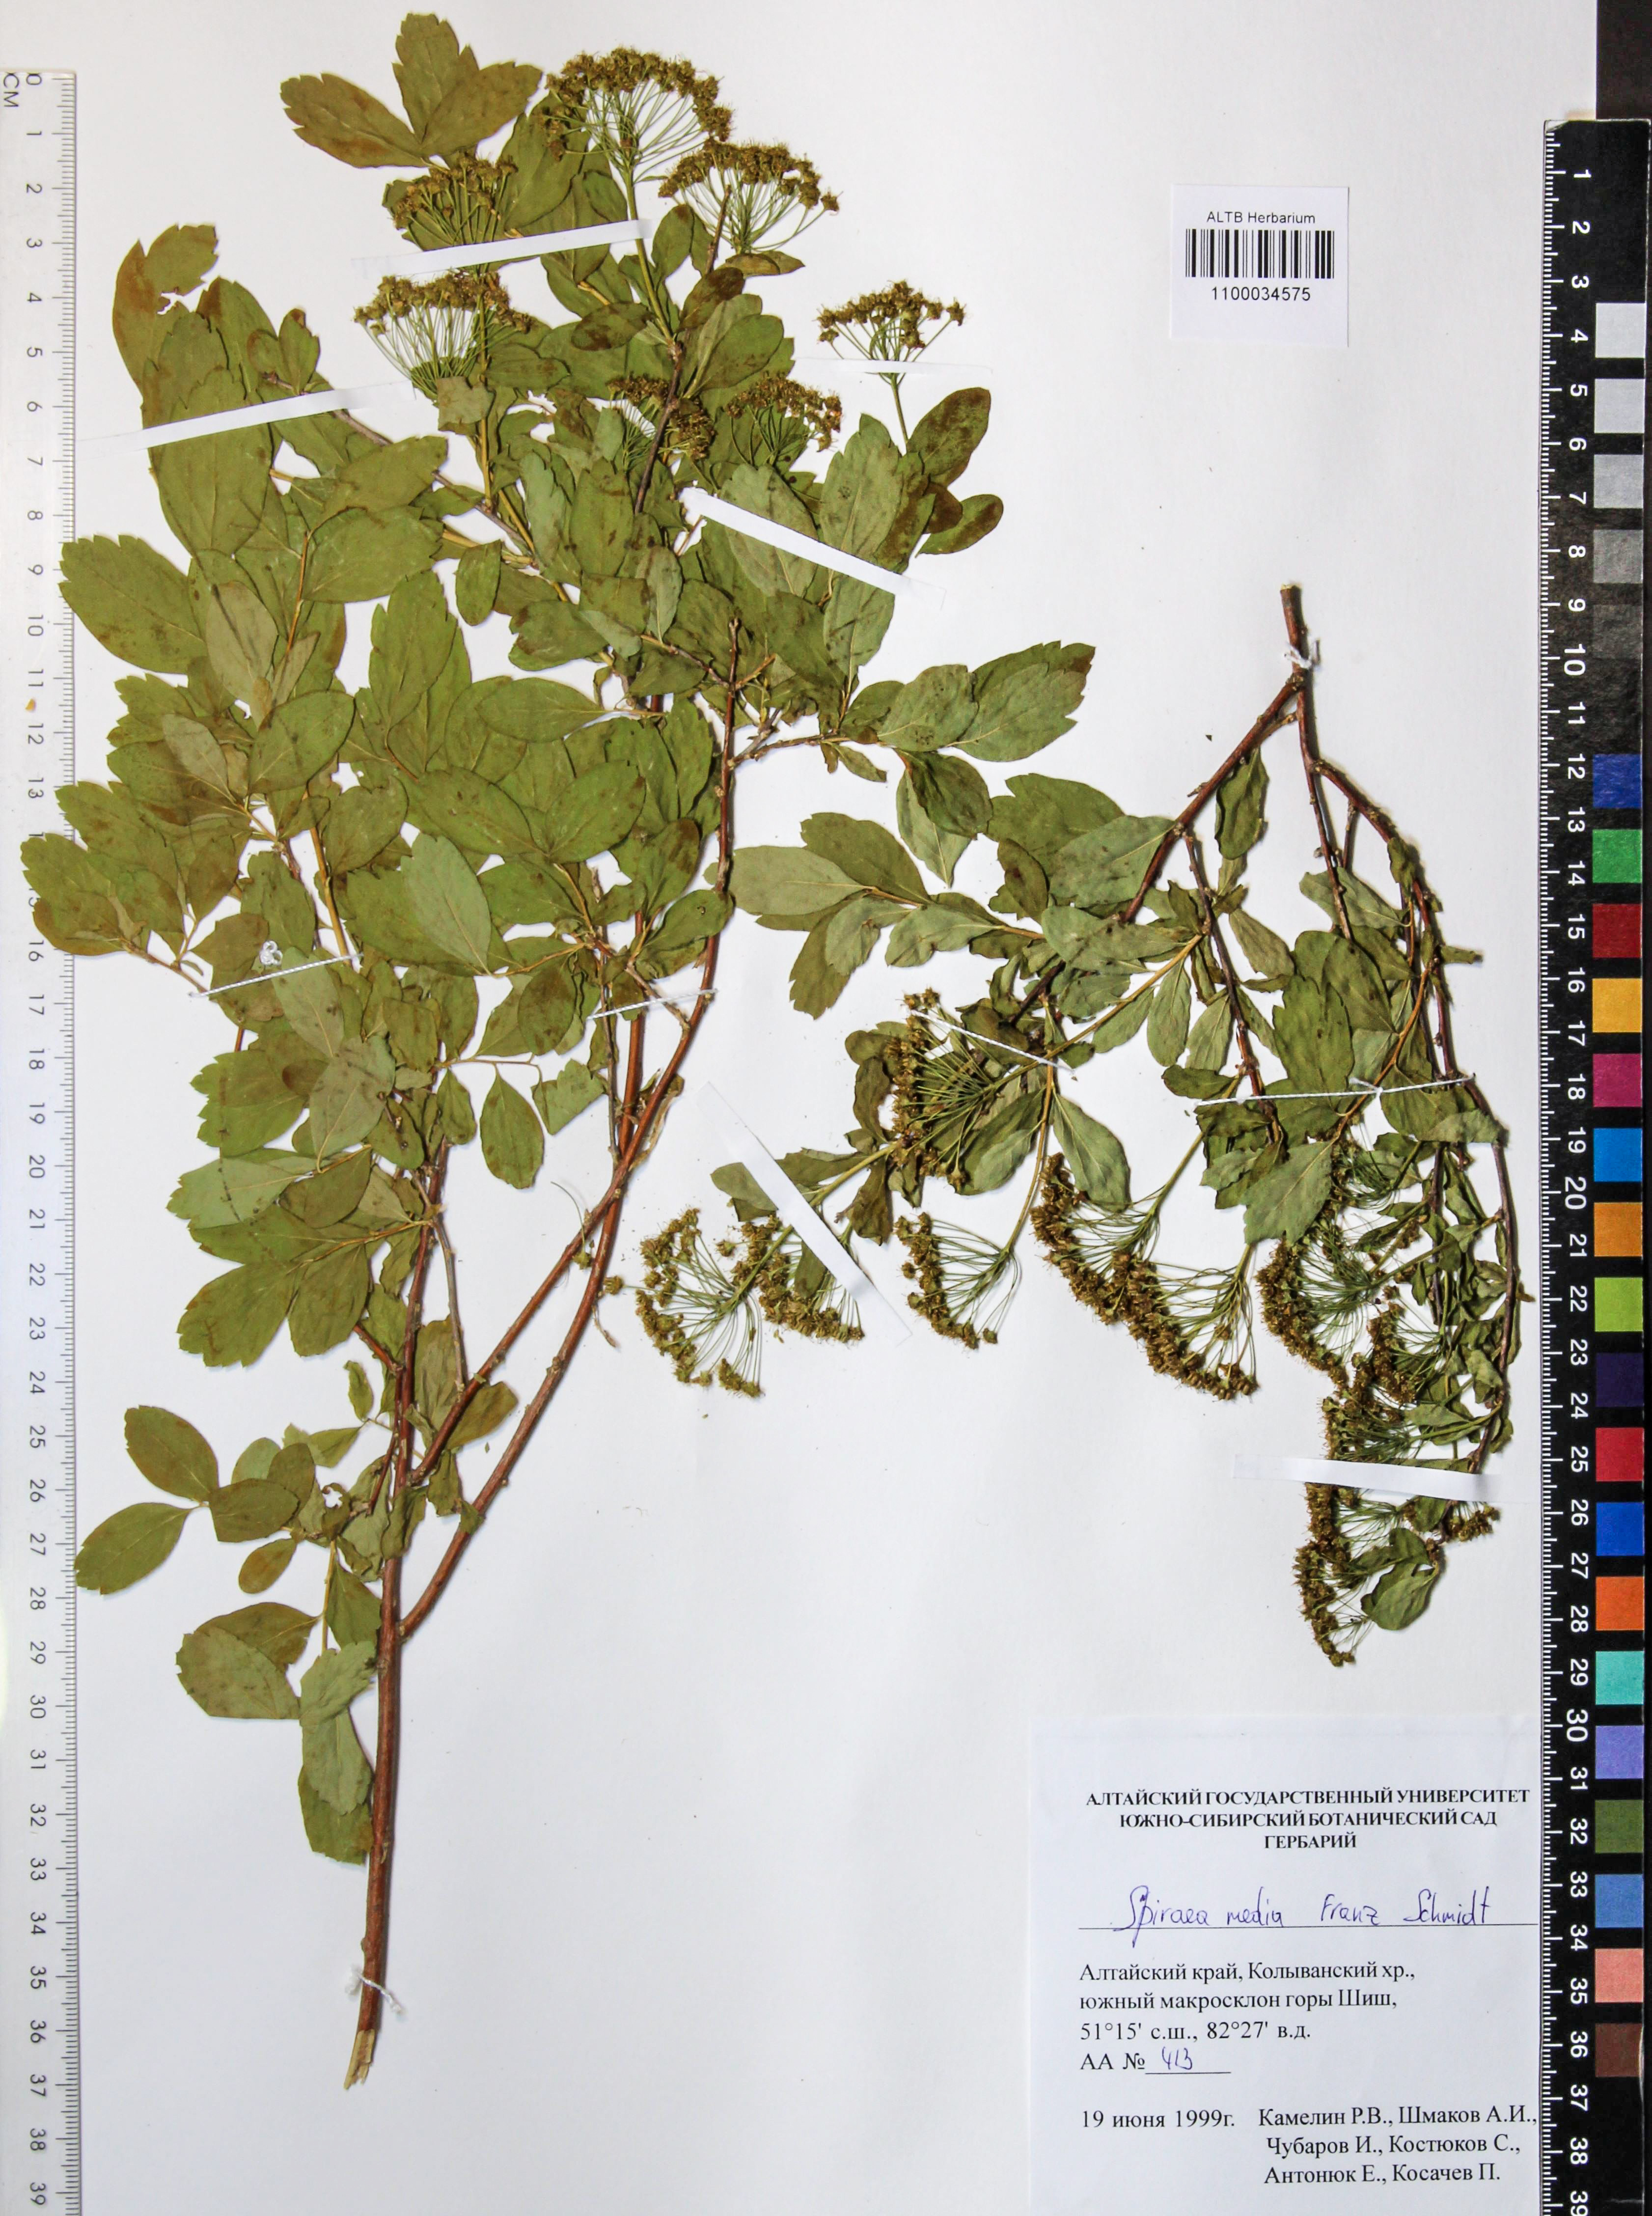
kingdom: Plantae
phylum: Tracheophyta
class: Magnoliopsida
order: Rosales
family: Rosaceae
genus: Spiraea
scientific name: Spiraea media
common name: Russian spiraea
